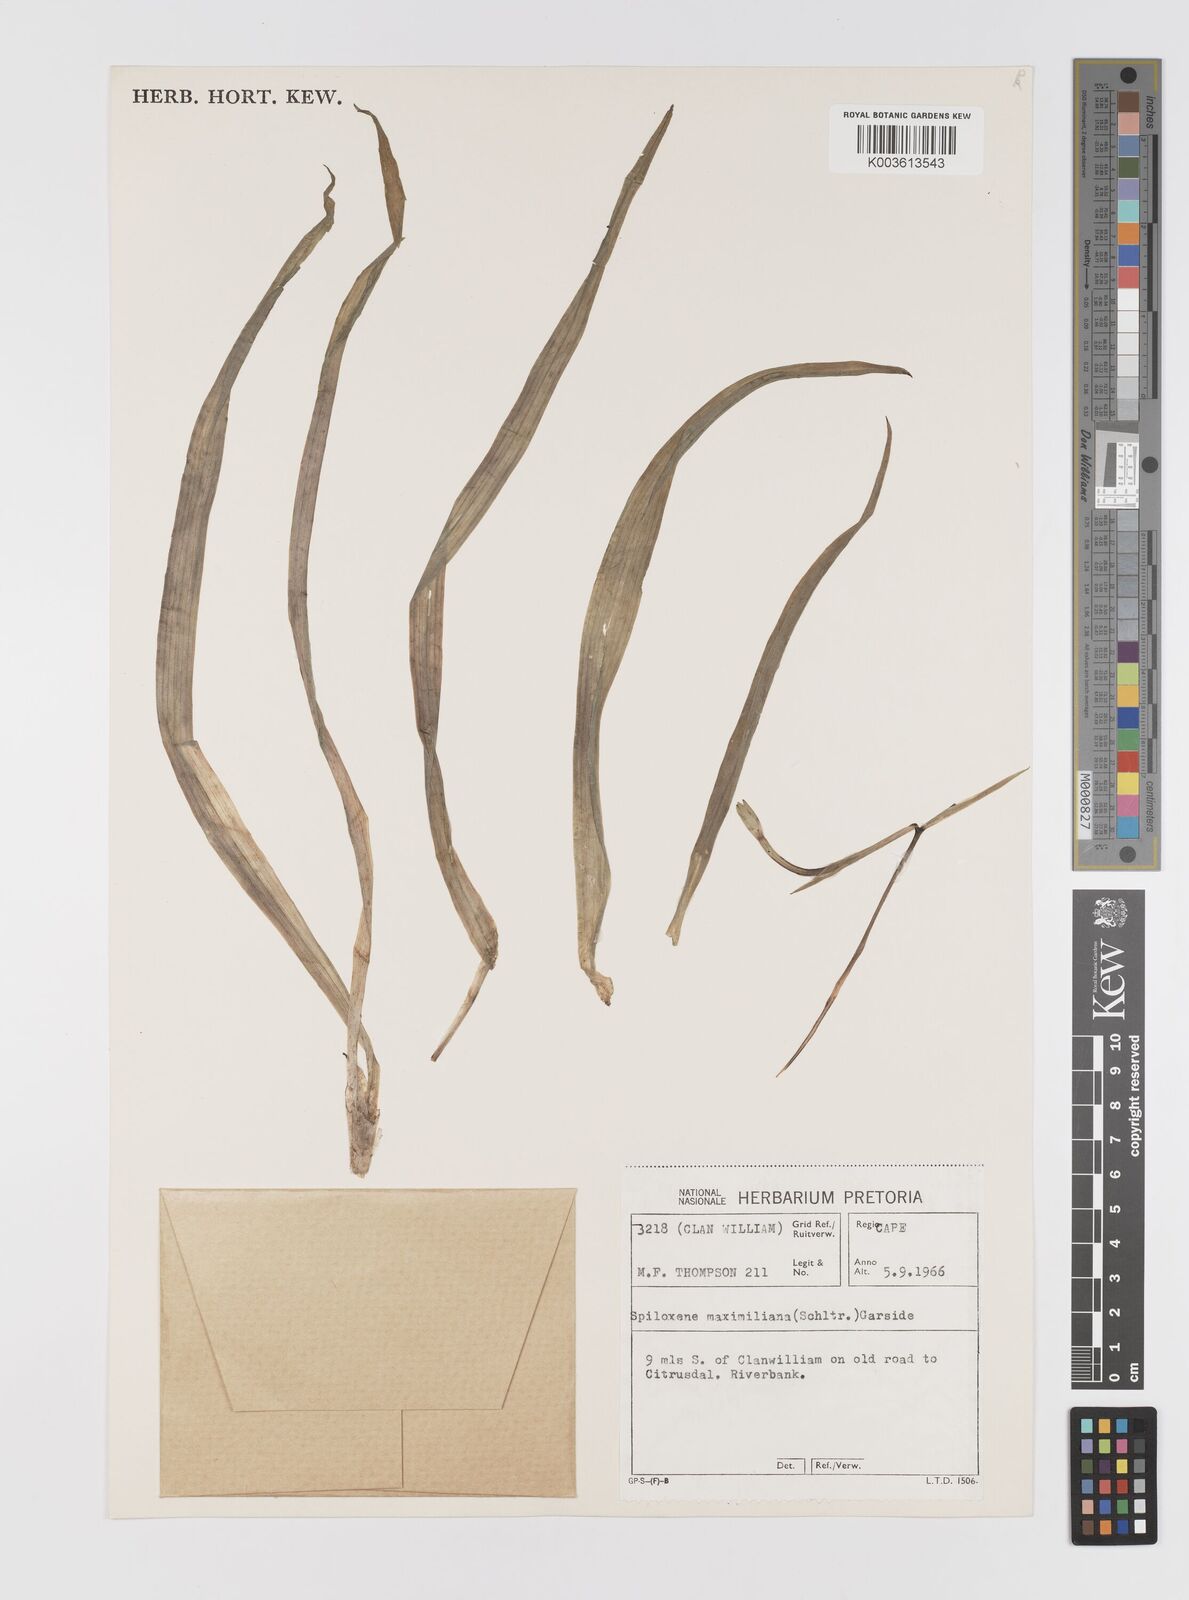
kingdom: Plantae
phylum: Tracheophyta
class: Liliopsida
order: Asparagales
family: Hypoxidaceae
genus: Pauridia
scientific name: Pauridia maximiliani
